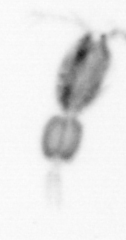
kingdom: Animalia
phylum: Arthropoda
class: Copepoda
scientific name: Copepoda
